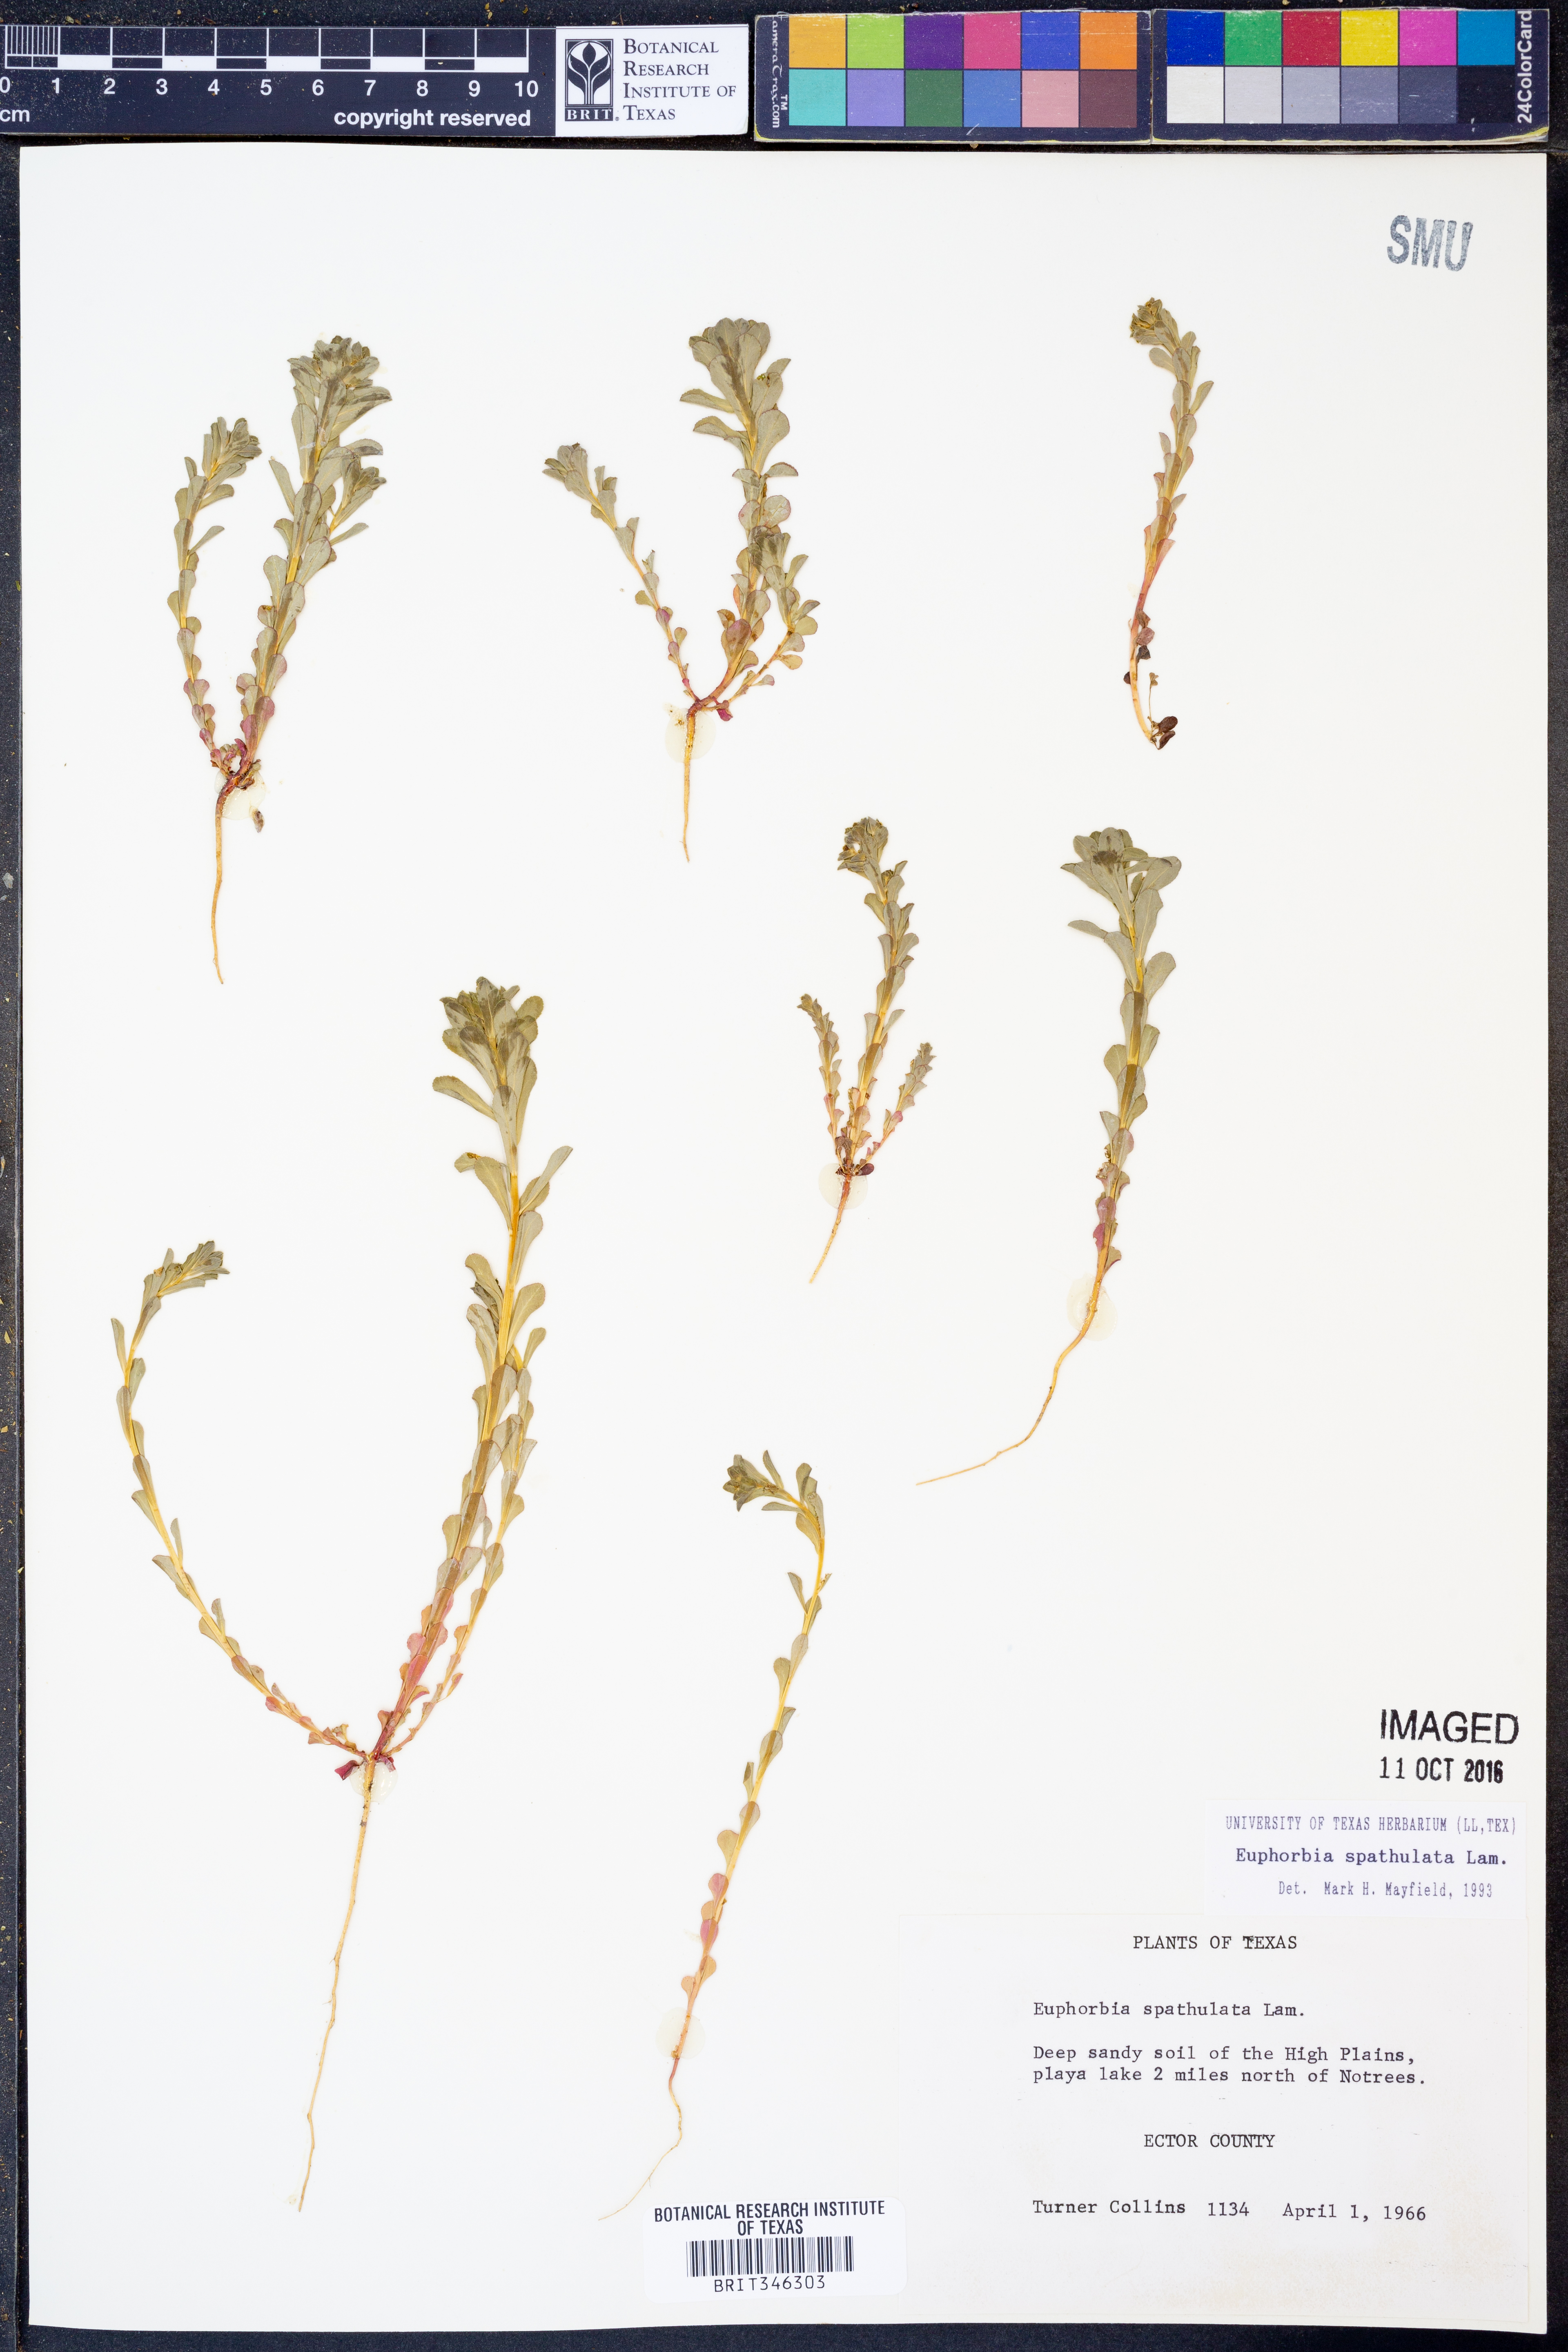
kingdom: Plantae
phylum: Tracheophyta
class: Magnoliopsida
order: Malpighiales
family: Euphorbiaceae
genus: Euphorbia
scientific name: Euphorbia spathulata
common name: Blunt spurge
